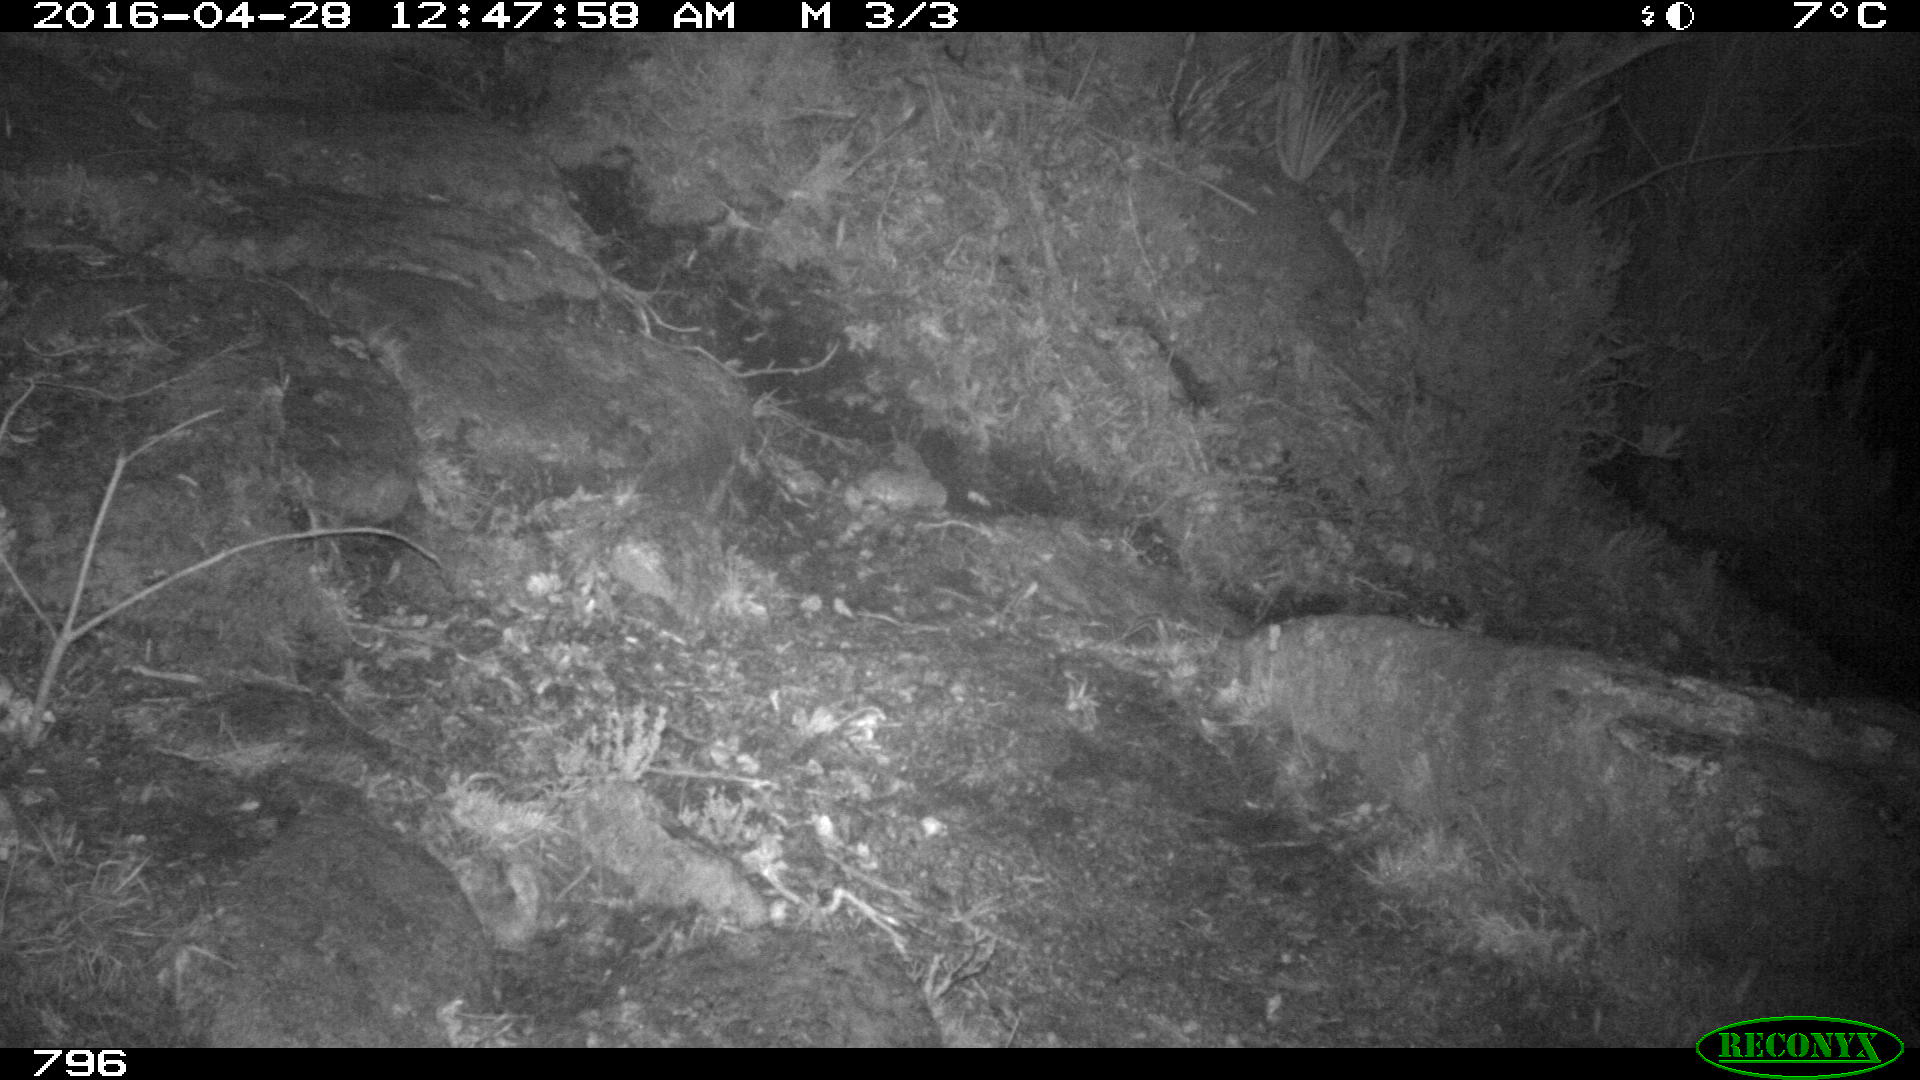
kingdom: Animalia
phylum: Chordata
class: Mammalia
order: Carnivora
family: Canidae
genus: Canis
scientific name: Canis lupus
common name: Gray wolf
